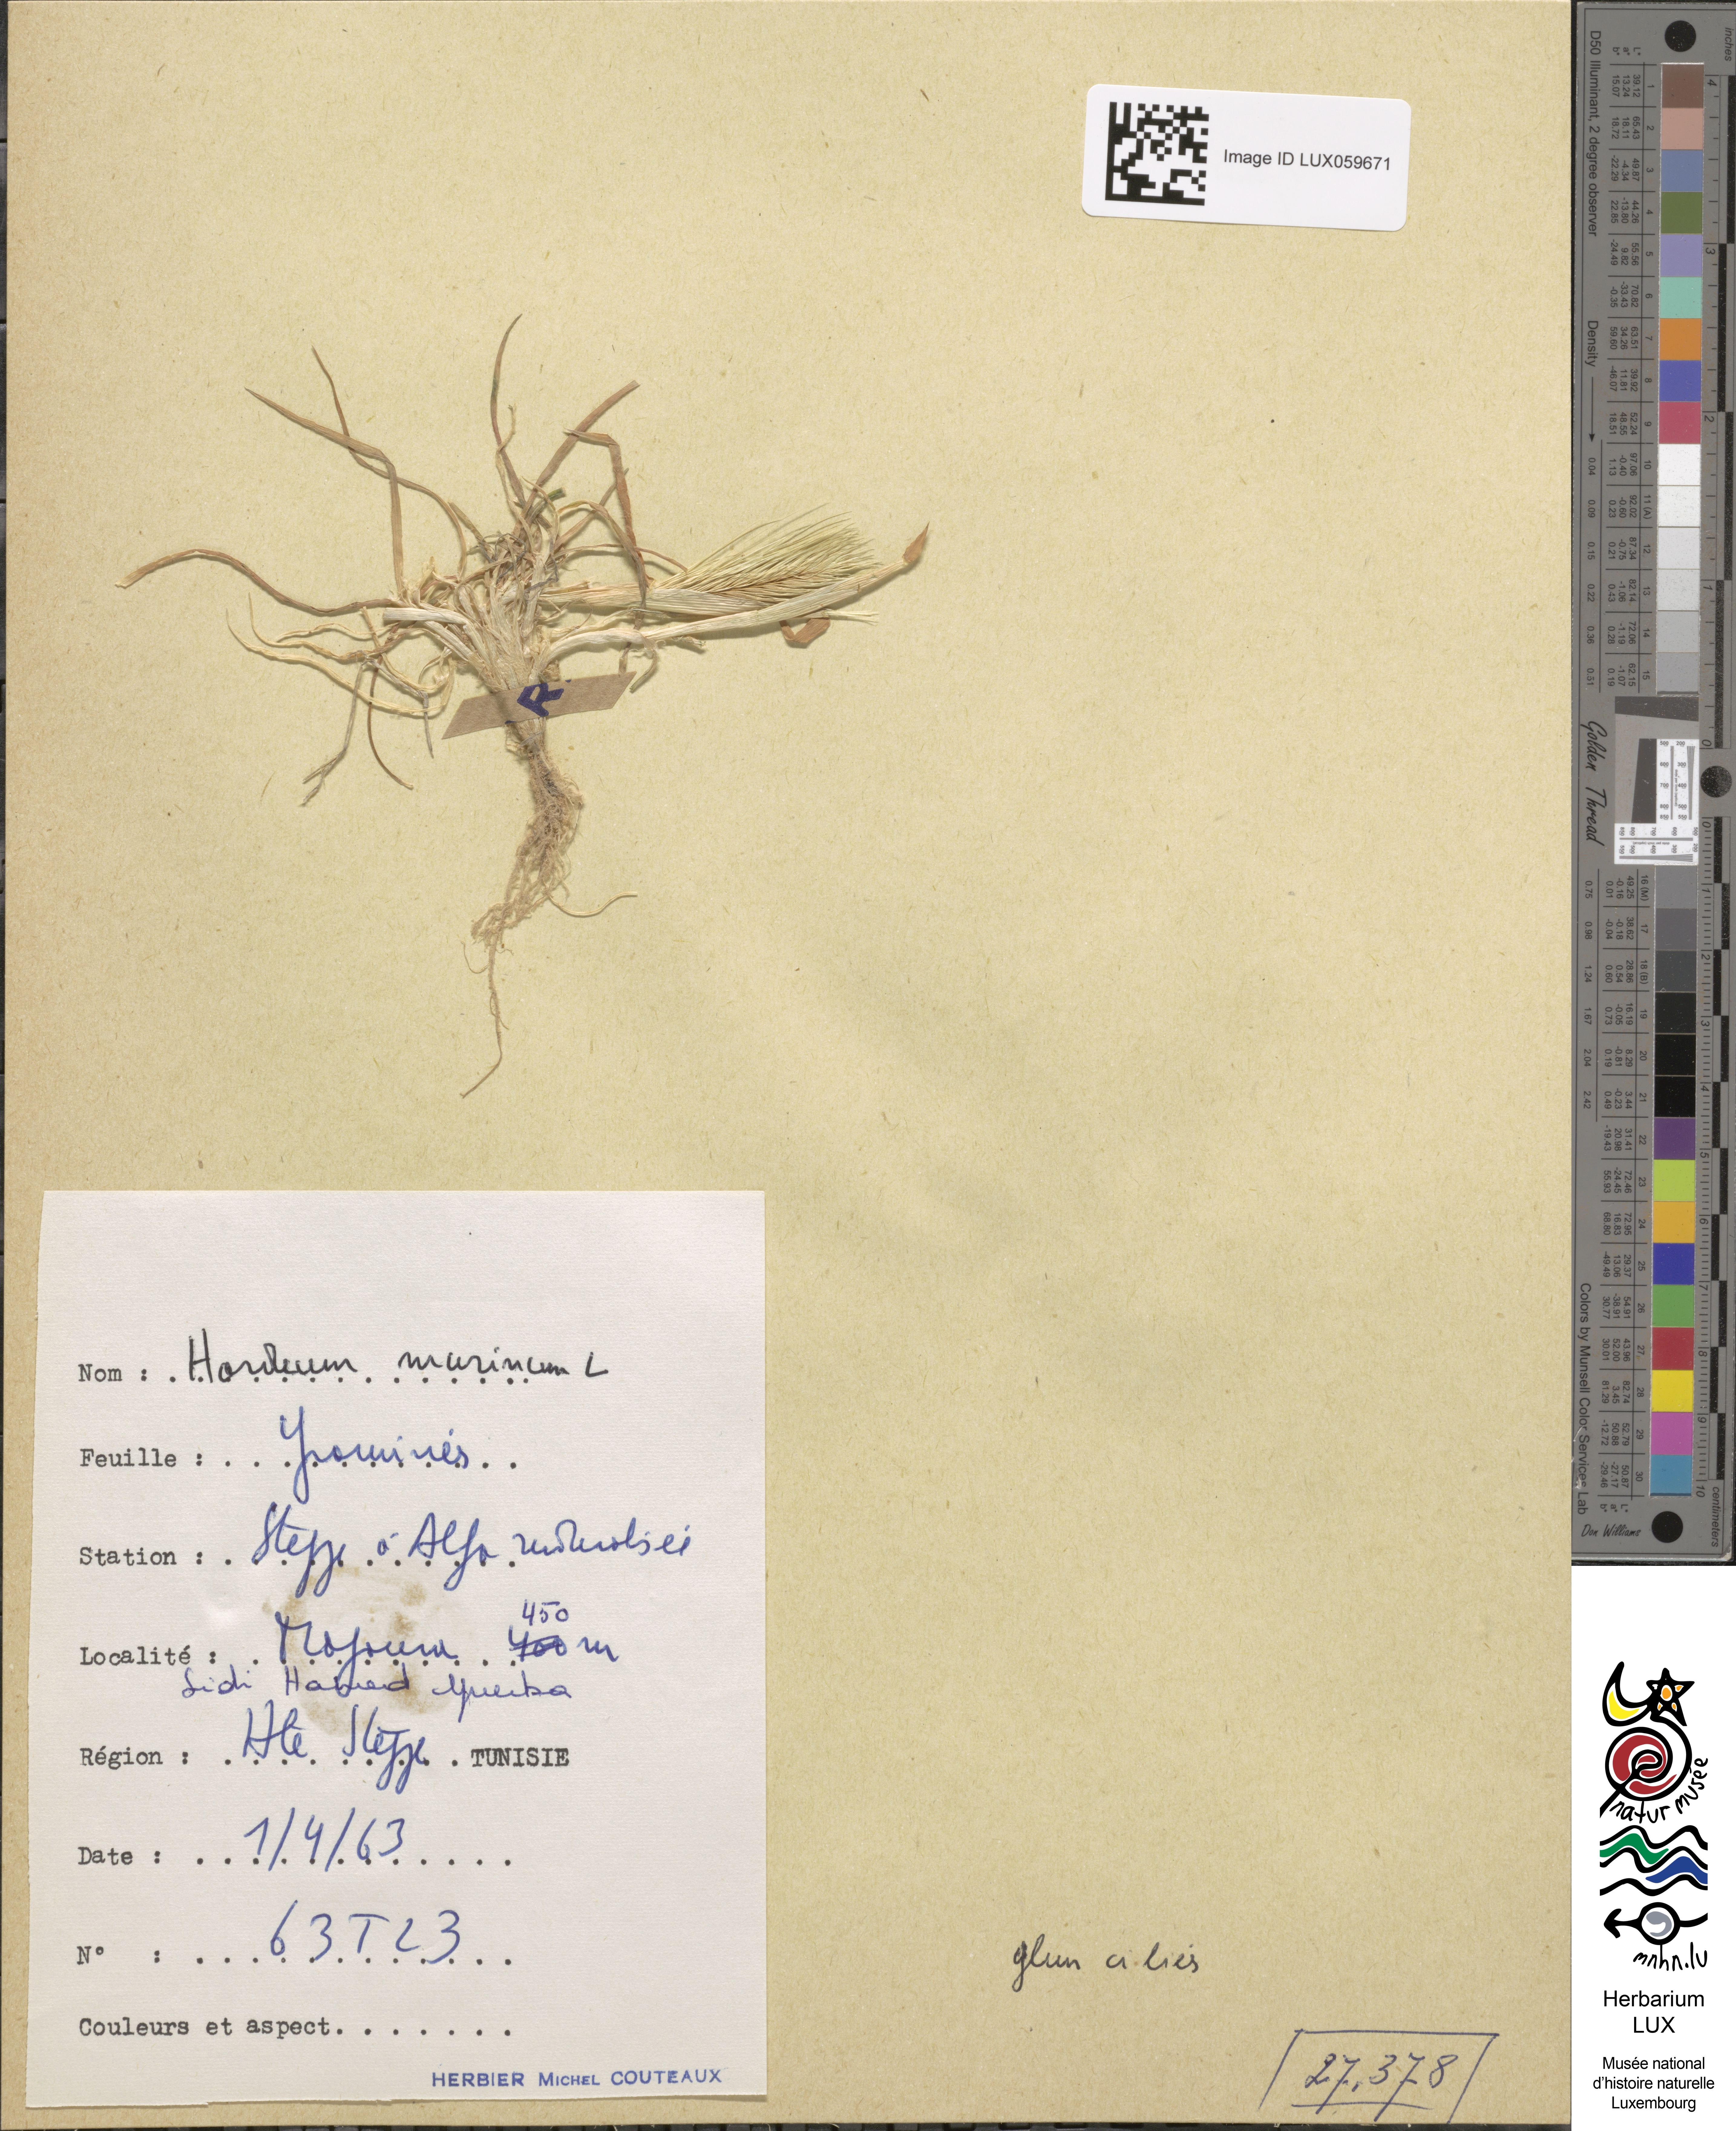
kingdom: Plantae
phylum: Tracheophyta
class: Liliopsida
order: Poales
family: Poaceae
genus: Hordeum
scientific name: Hordeum murinum
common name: Wall barley
